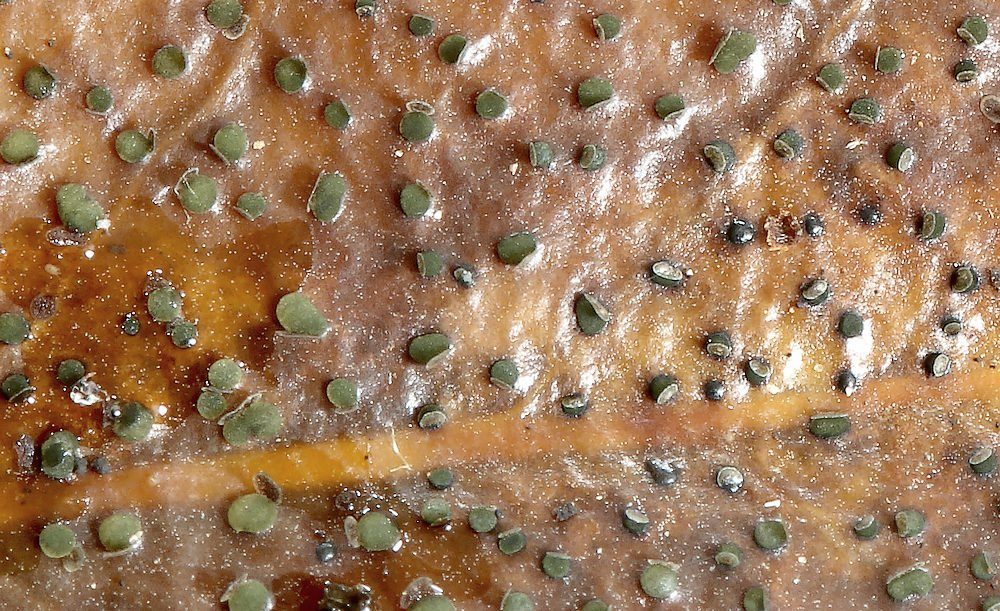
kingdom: Fungi
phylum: Ascomycota
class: Leotiomycetes
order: Helotiales
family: Cenangiaceae
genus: Trochila
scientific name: Trochila ilicina
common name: kristtorn-lågskive
